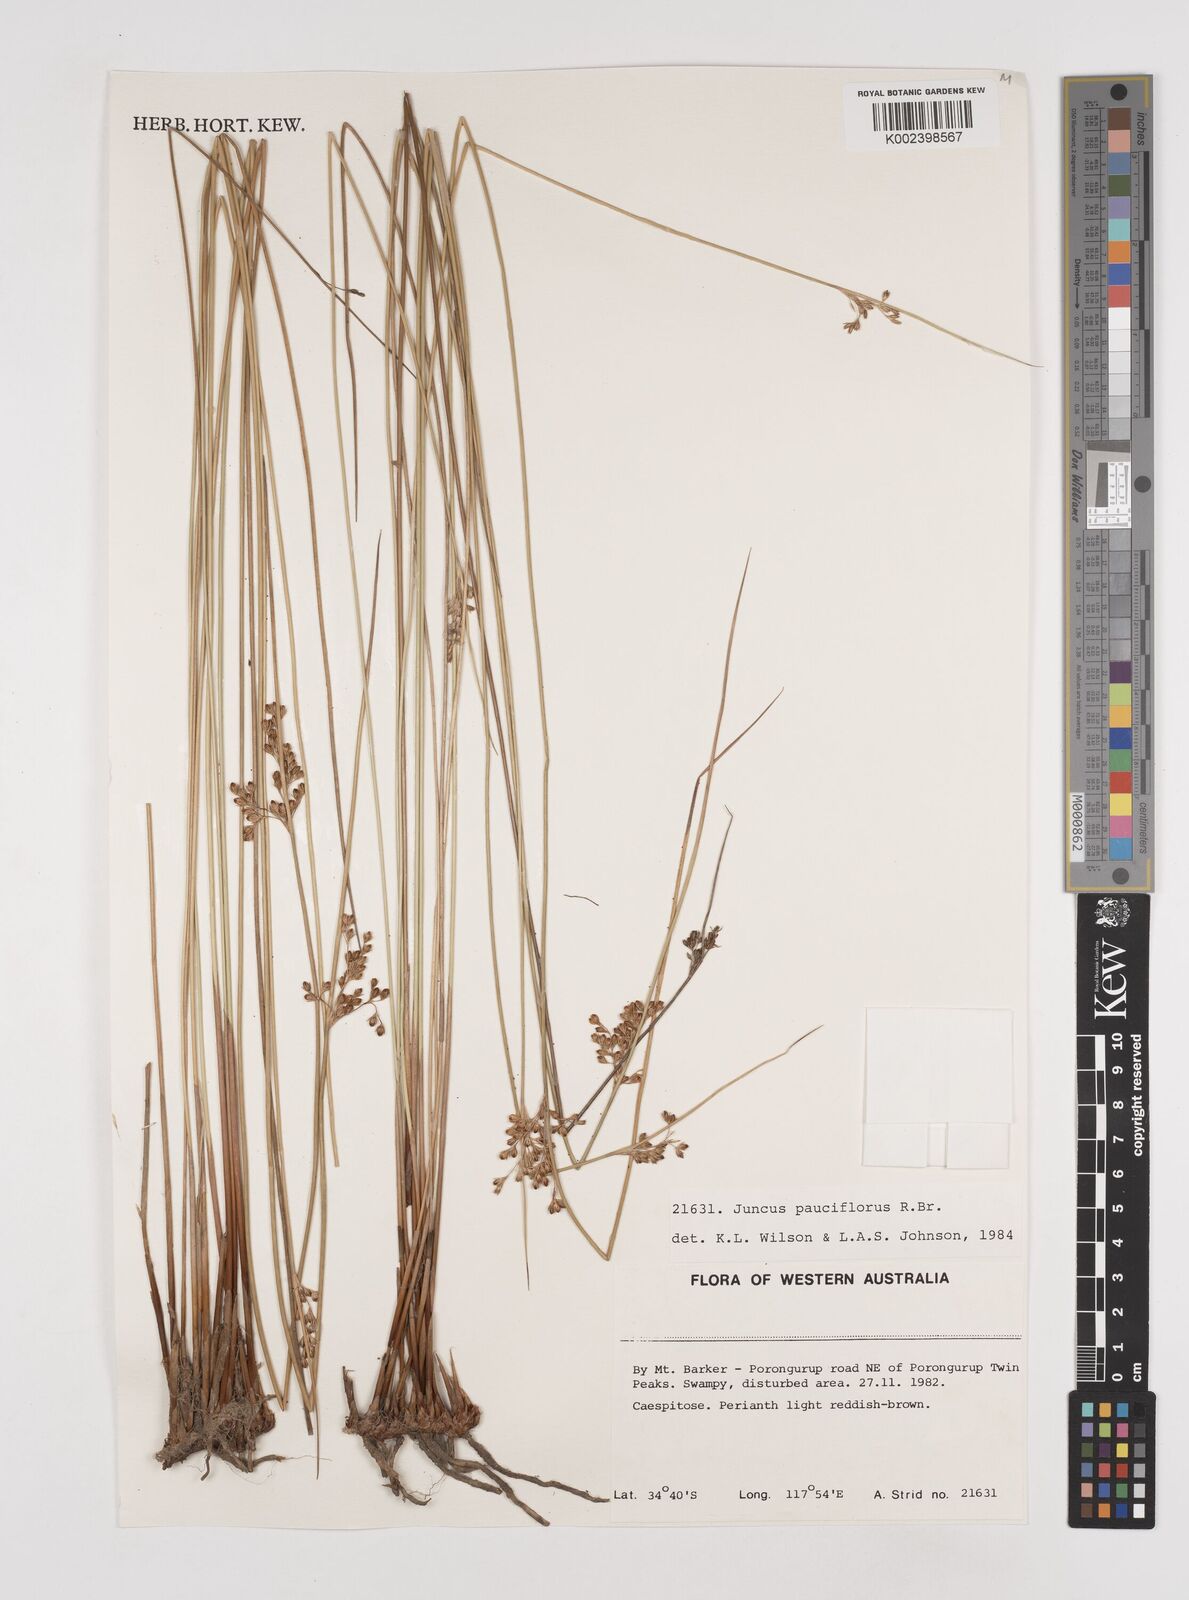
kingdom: Plantae
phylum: Tracheophyta
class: Liliopsida
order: Poales
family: Juncaceae
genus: Juncus
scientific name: Juncus pauciflorus
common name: Loose-flowered rush
